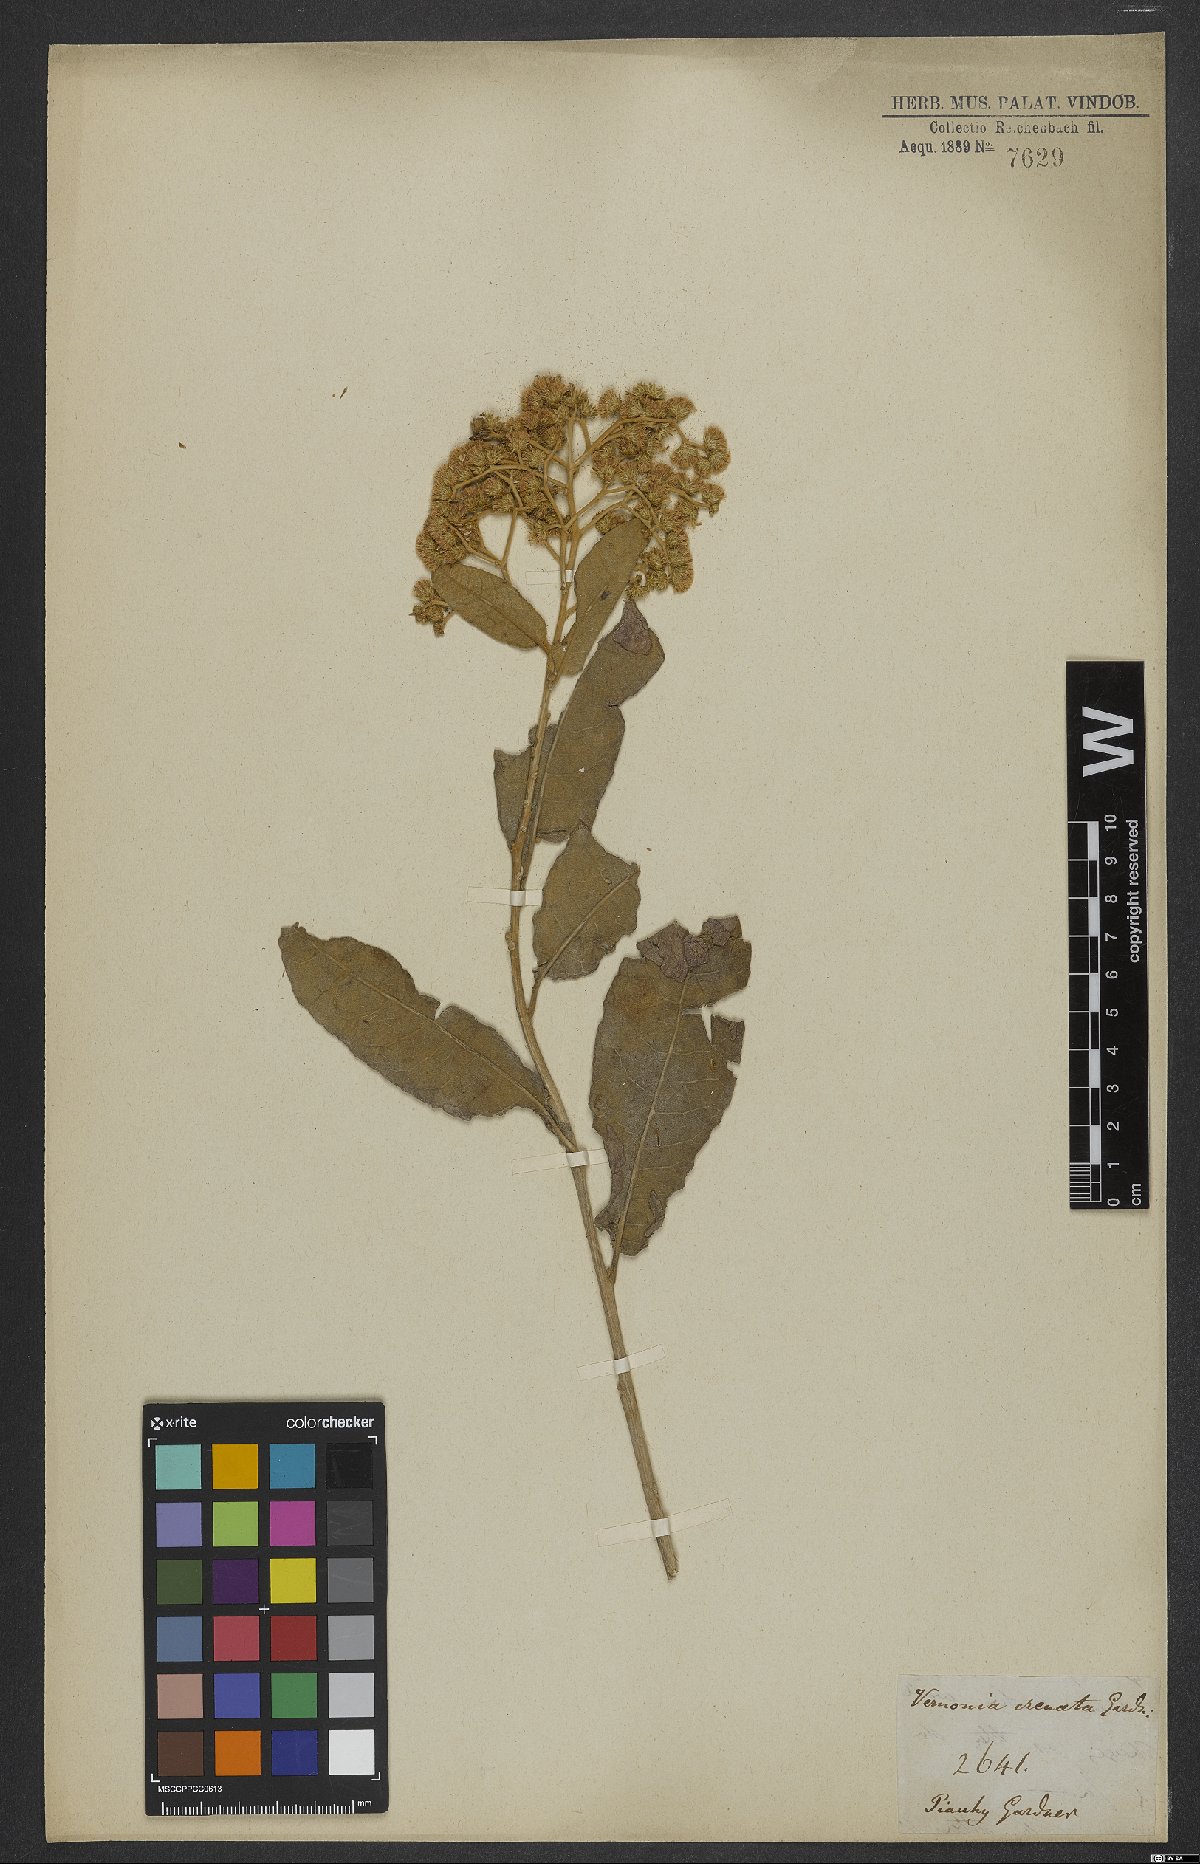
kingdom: Plantae
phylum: Tracheophyta
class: Magnoliopsida
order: Asterales
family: Asteraceae
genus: Vernonanthura
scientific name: Vernonanthura ferruginea
